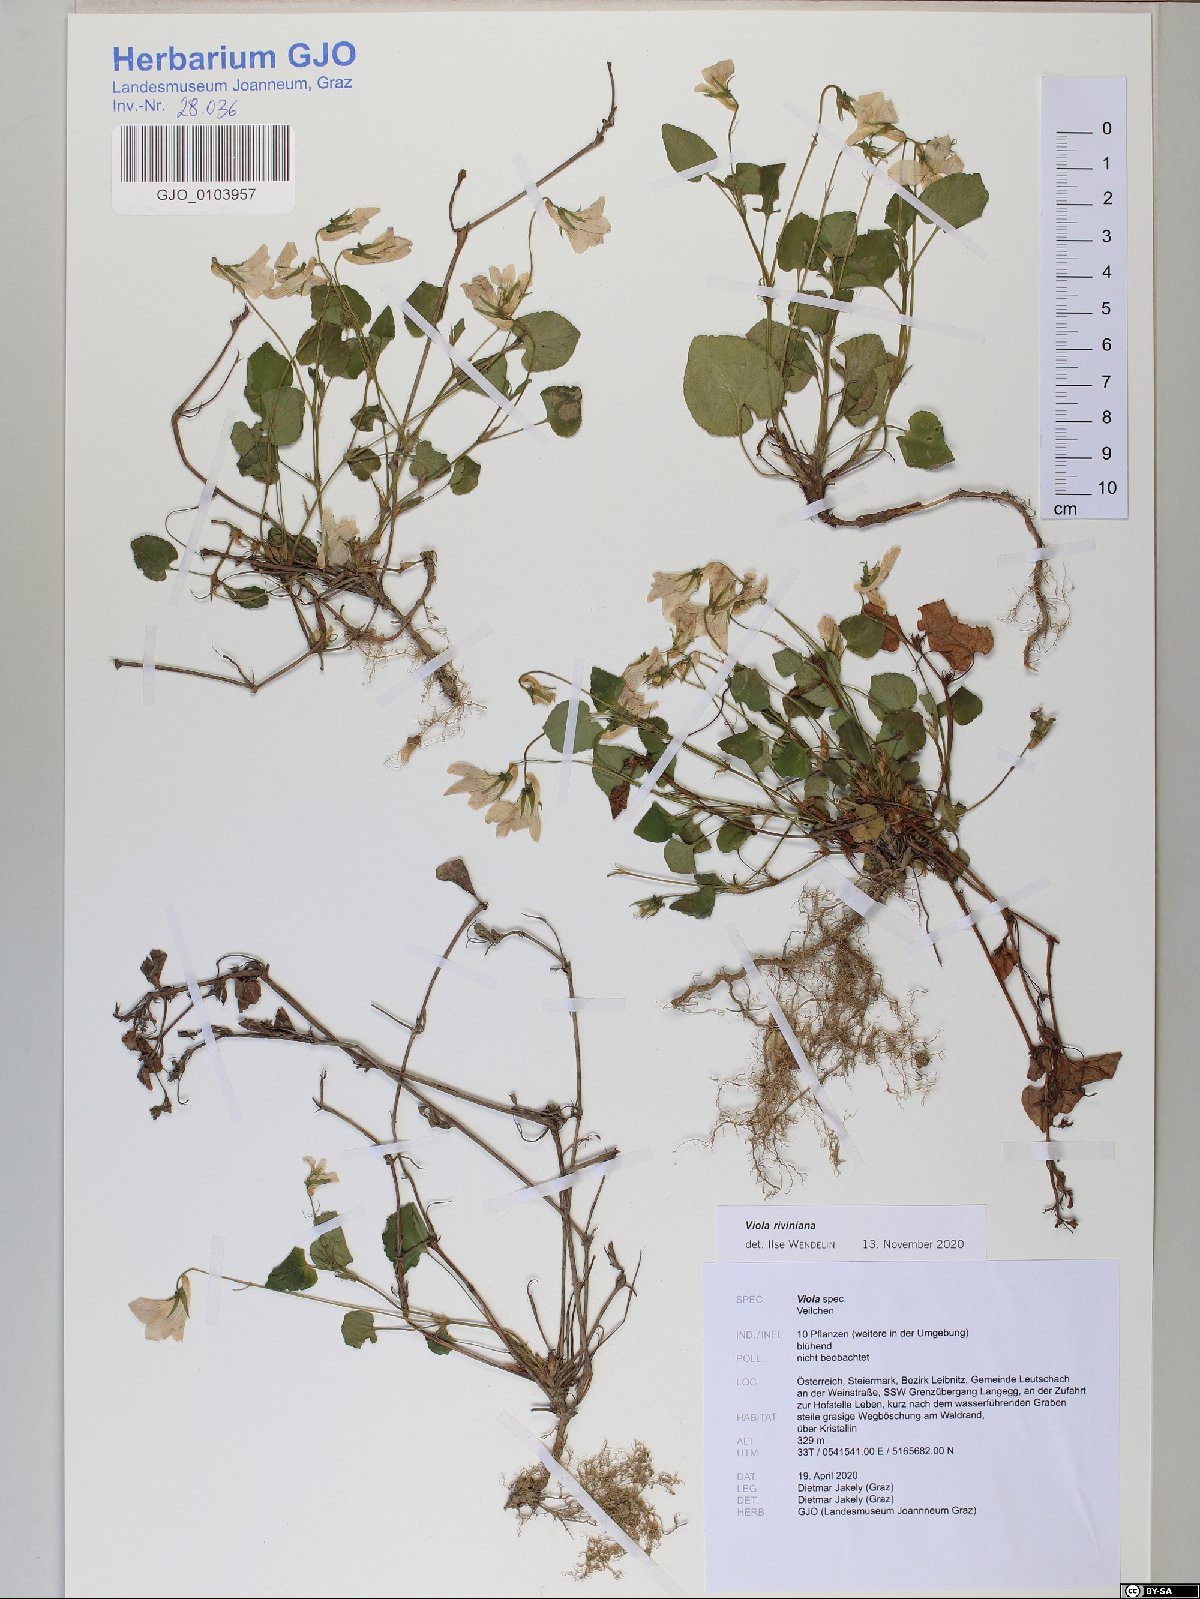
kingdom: Plantae
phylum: Tracheophyta
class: Magnoliopsida
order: Malpighiales
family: Violaceae
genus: Viola
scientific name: Viola riviniana
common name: Common dog-violet
